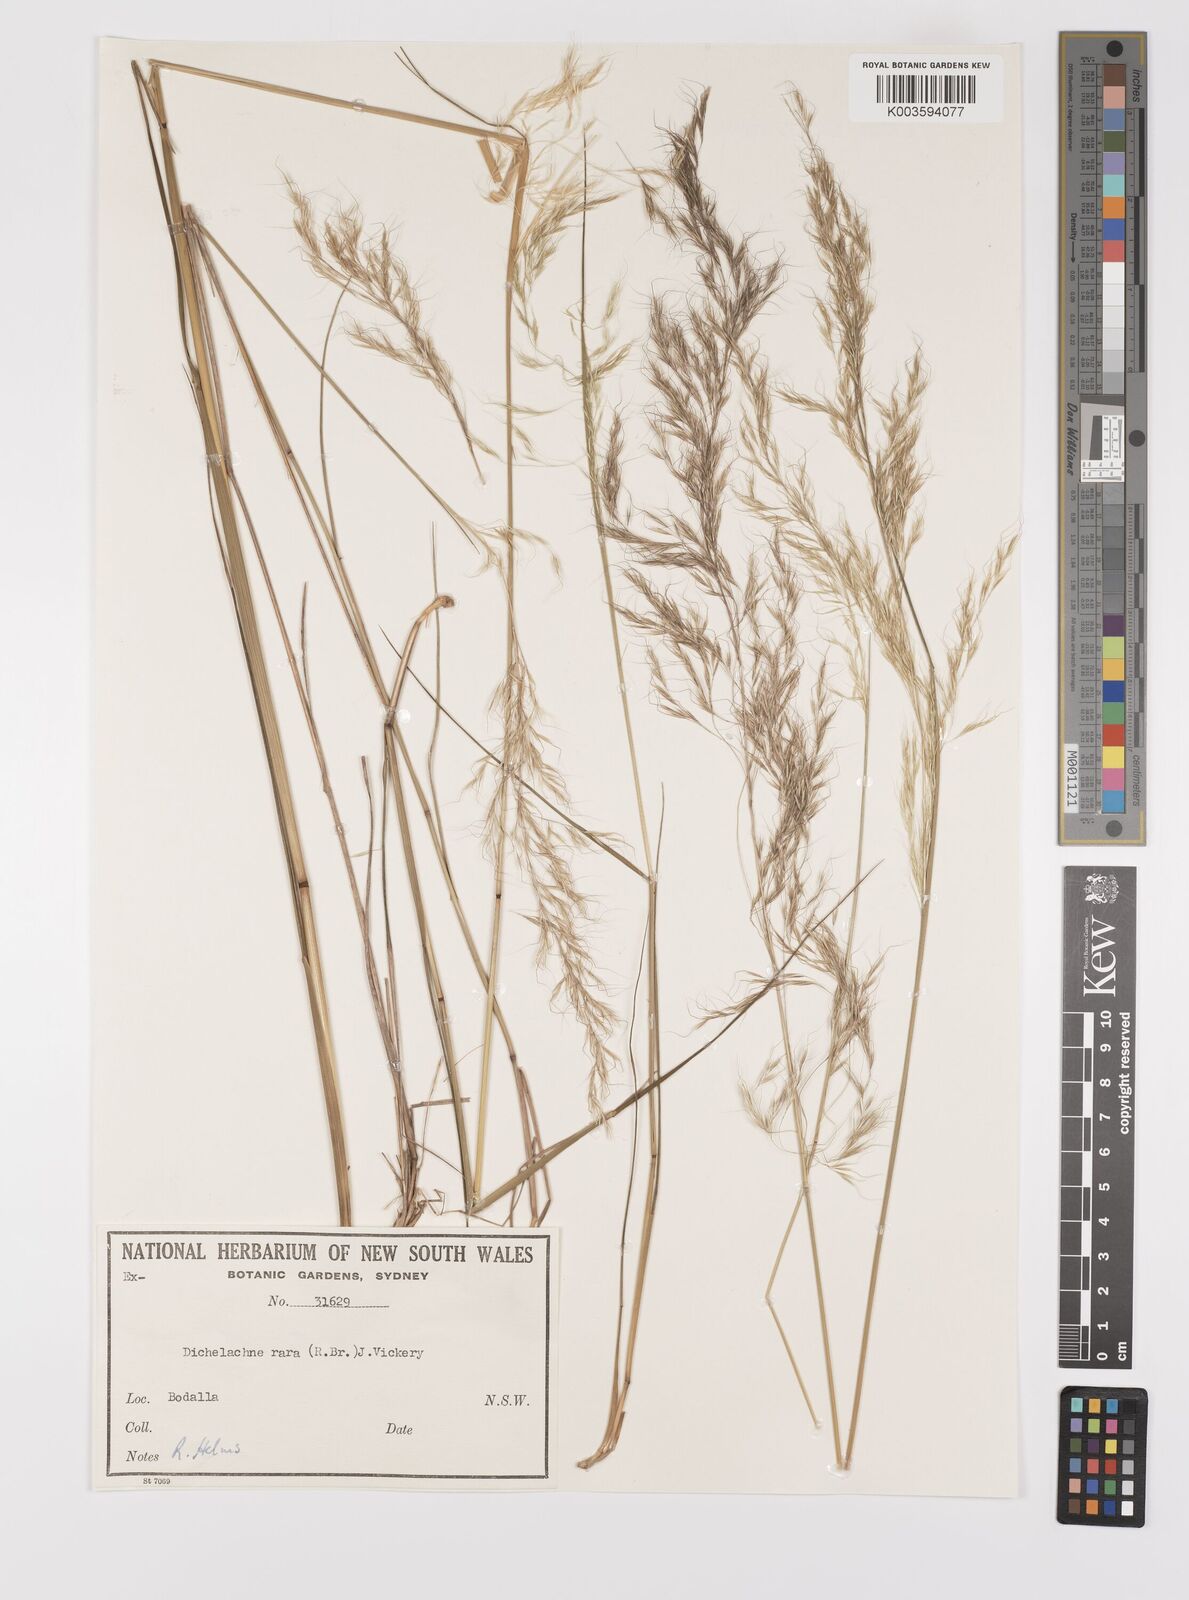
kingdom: Plantae
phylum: Tracheophyta
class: Liliopsida
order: Poales
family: Poaceae
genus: Dichelachne
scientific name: Dichelachne rara
